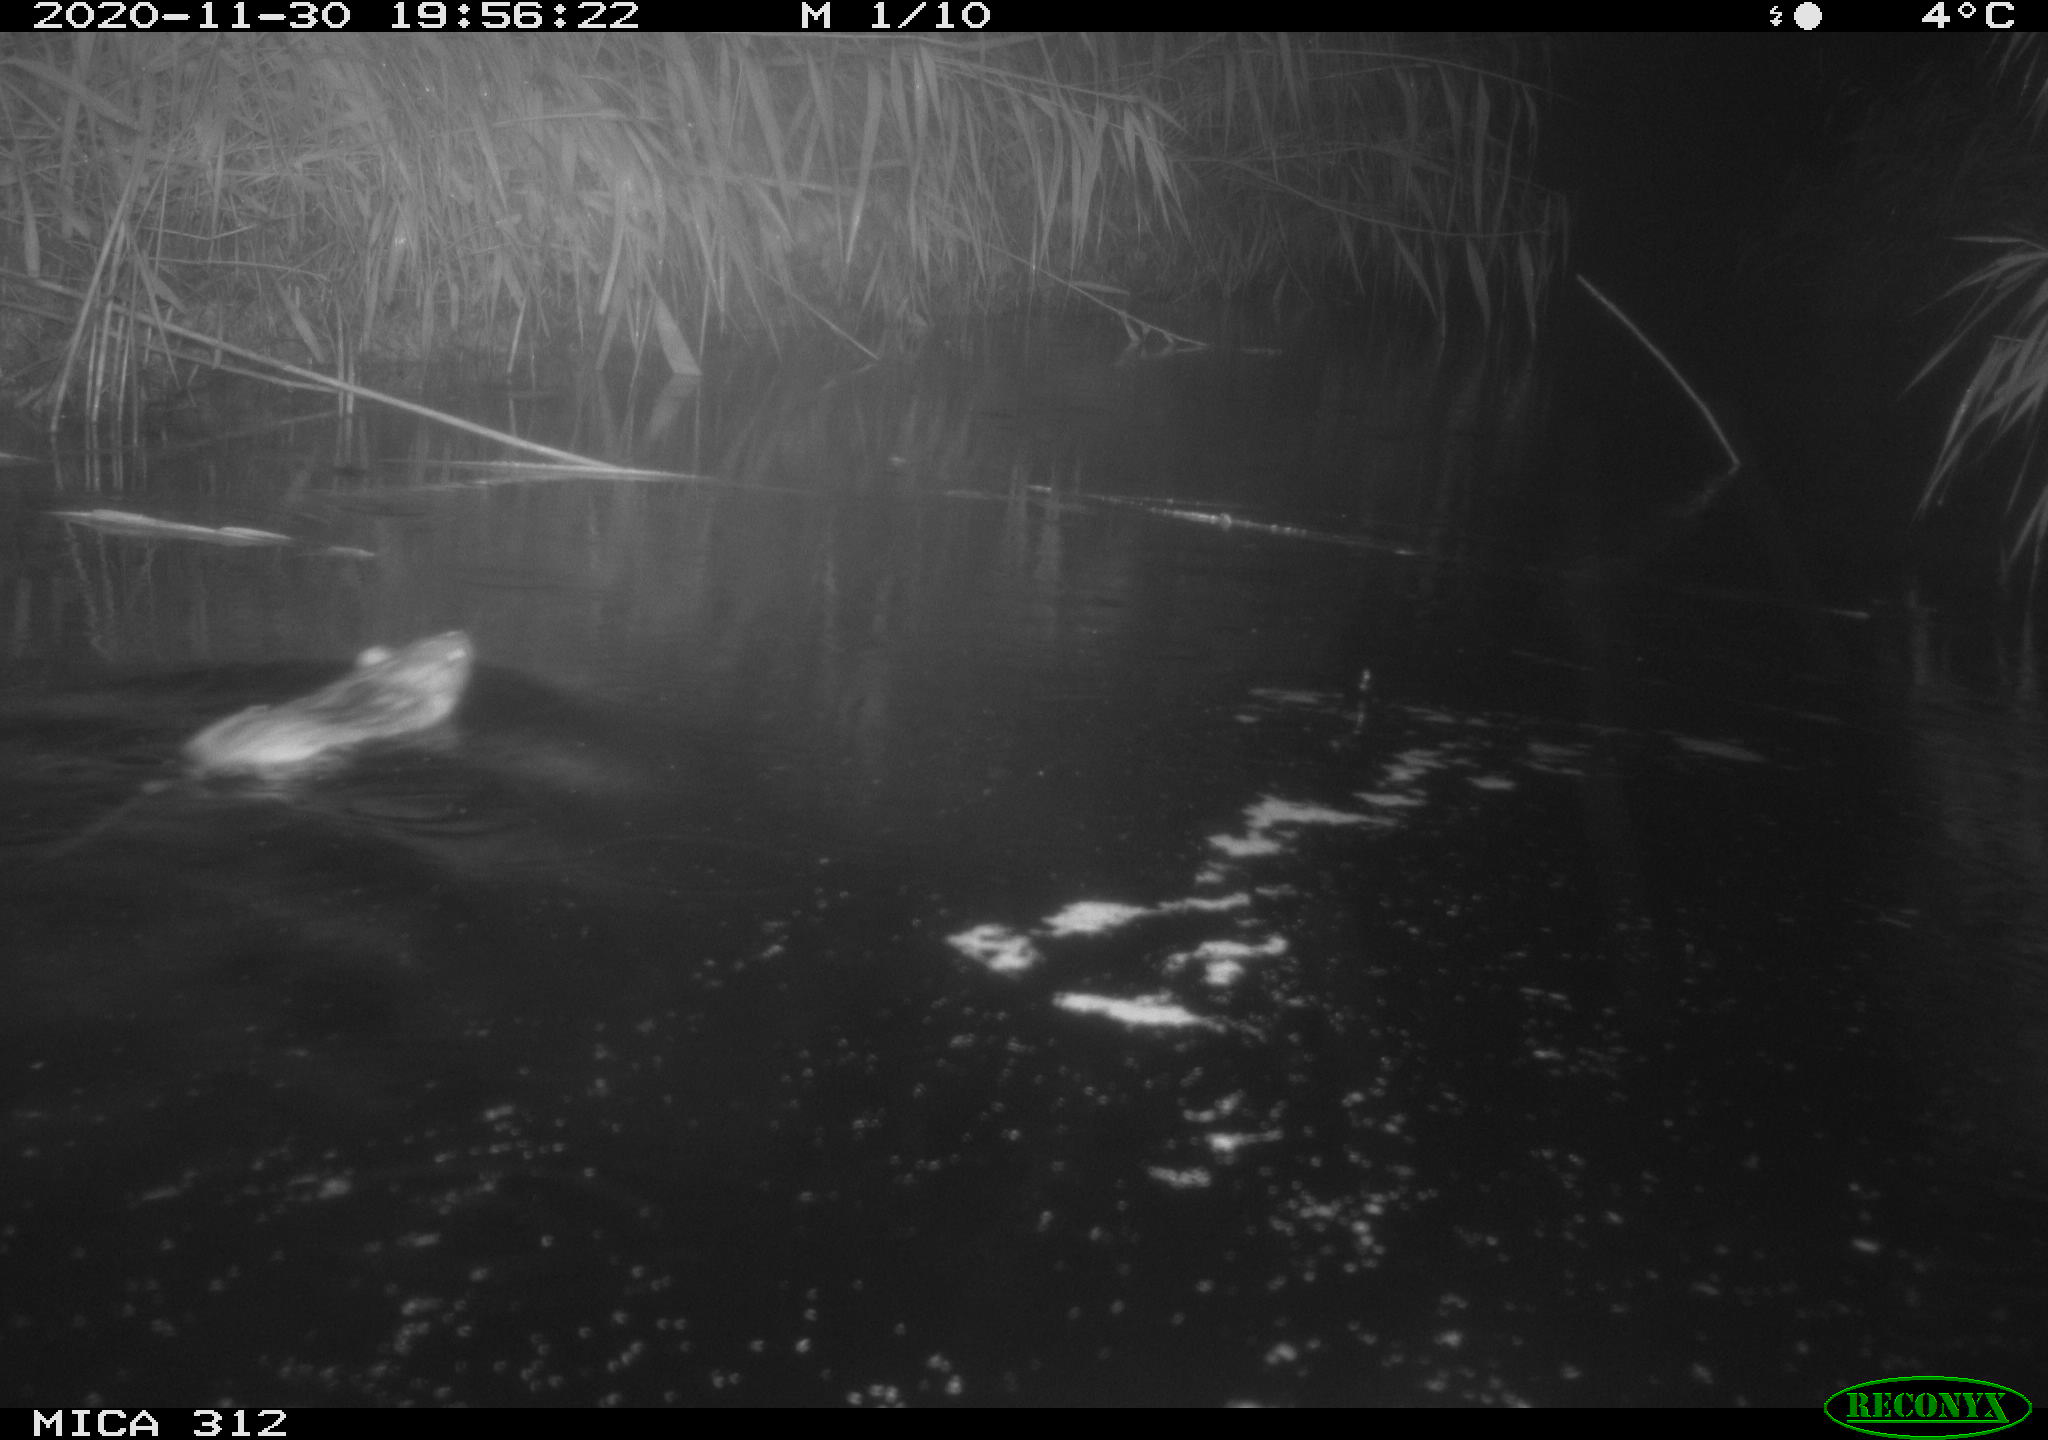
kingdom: Animalia
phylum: Chordata
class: Mammalia
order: Rodentia
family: Muridae
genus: Rattus
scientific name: Rattus norvegicus
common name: Brown rat
